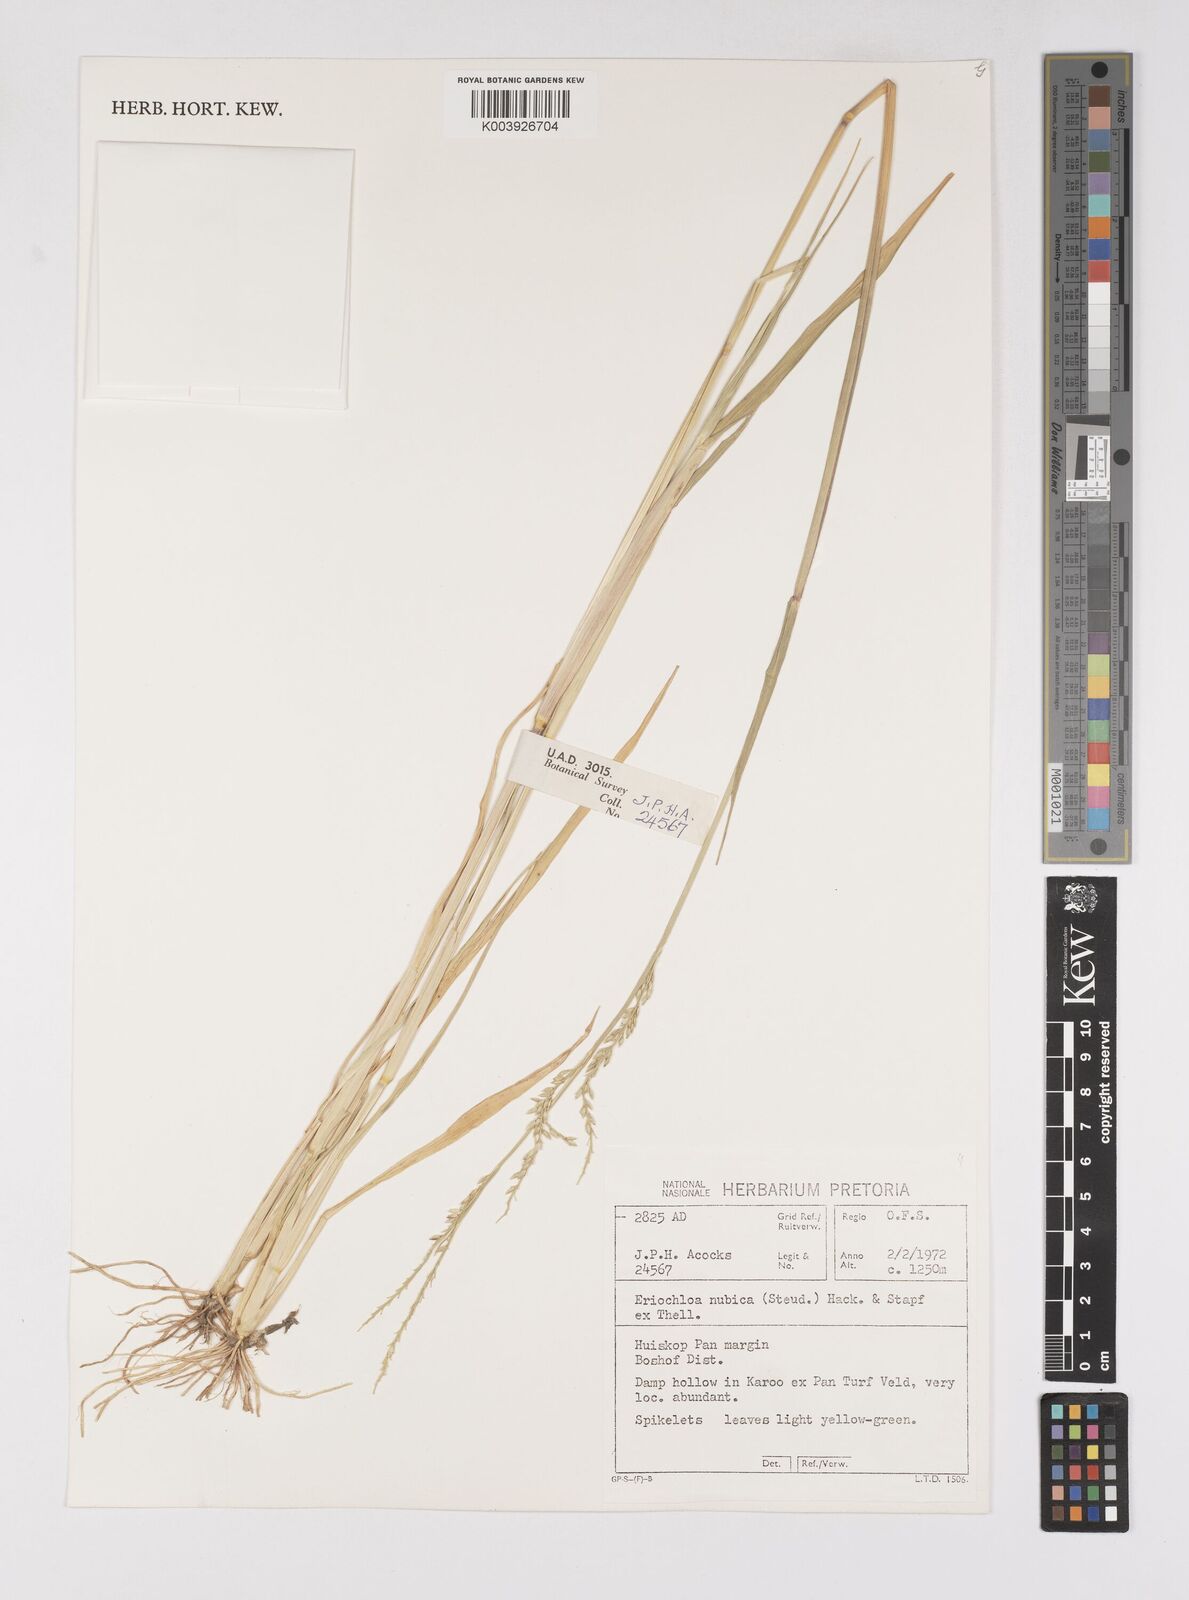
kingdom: Plantae
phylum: Tracheophyta
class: Liliopsida
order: Poales
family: Poaceae
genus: Eriochloa
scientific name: Eriochloa barbatus
